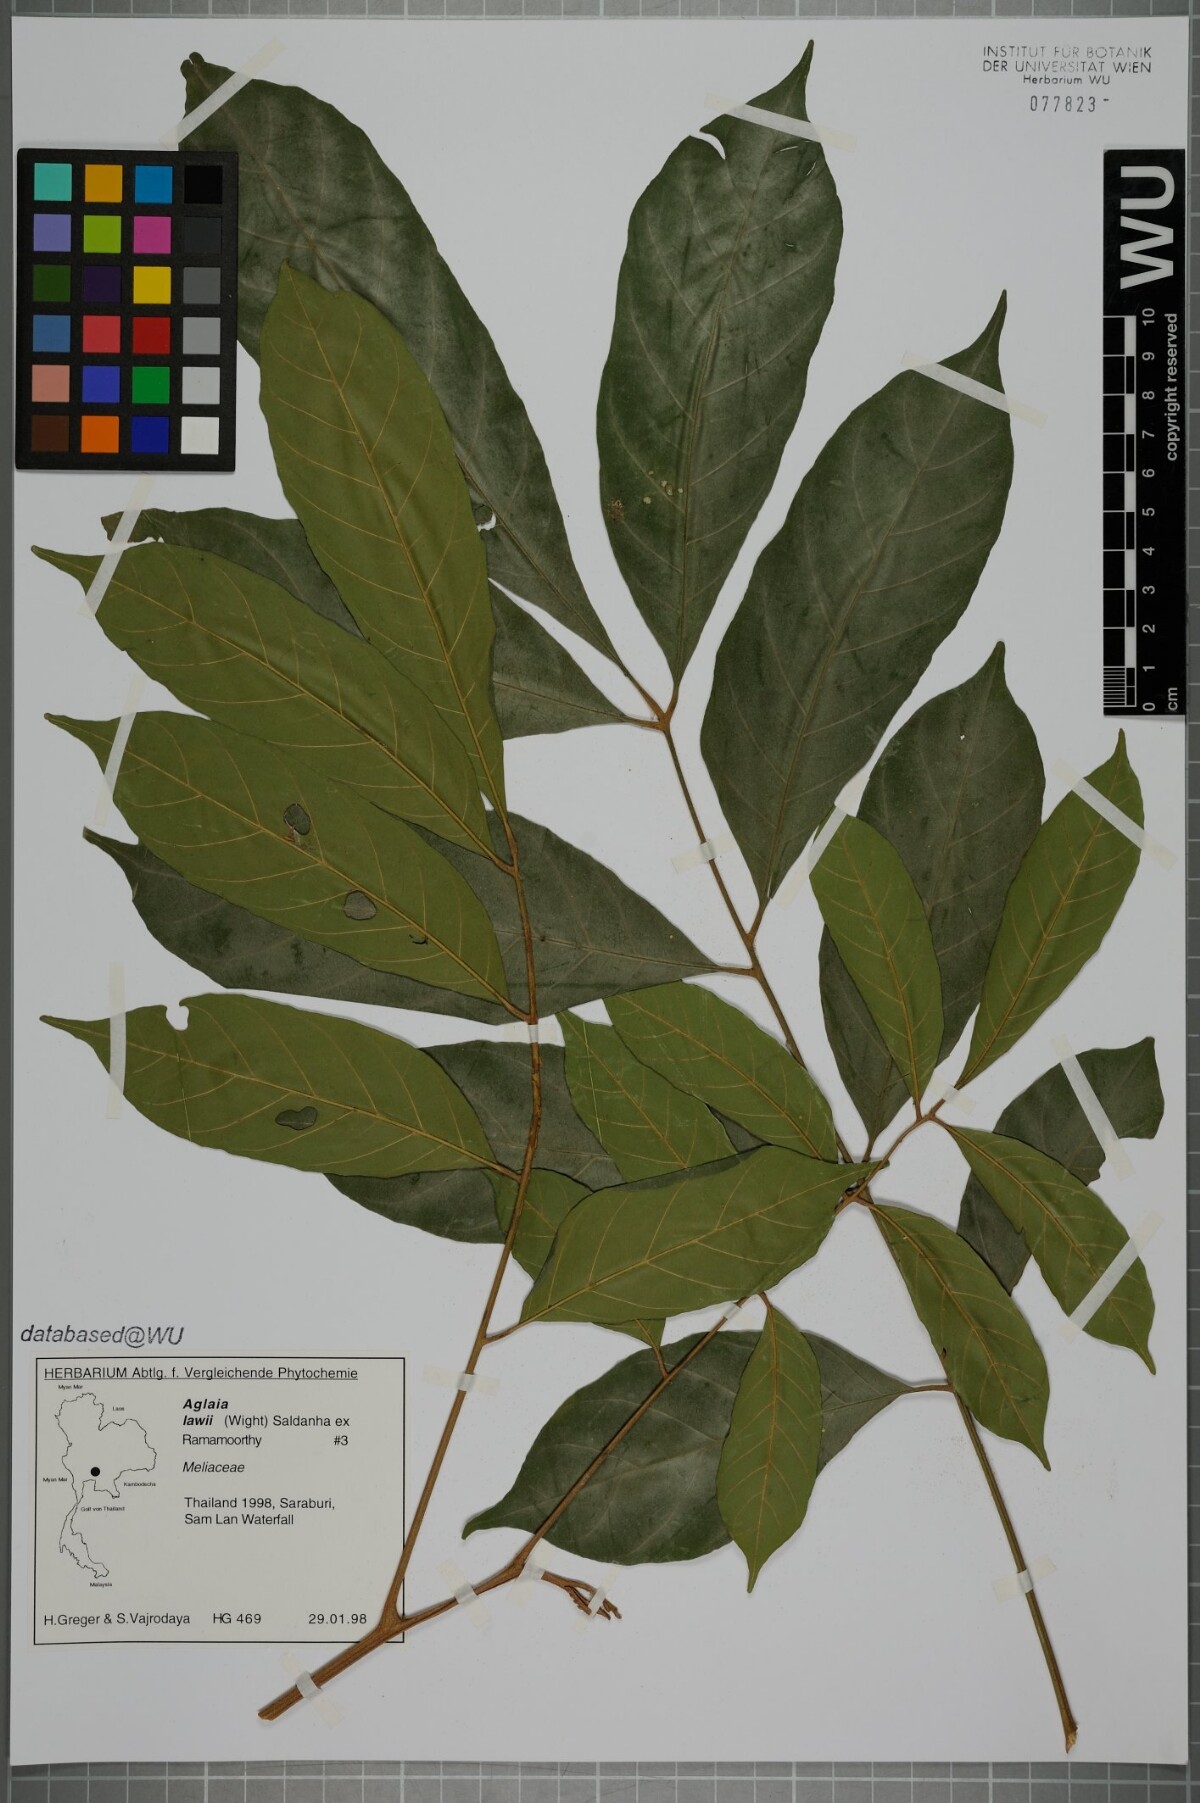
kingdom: Plantae
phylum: Tracheophyta
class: Magnoliopsida
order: Sapindales
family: Meliaceae
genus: Aglaia
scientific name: Aglaia lawii
